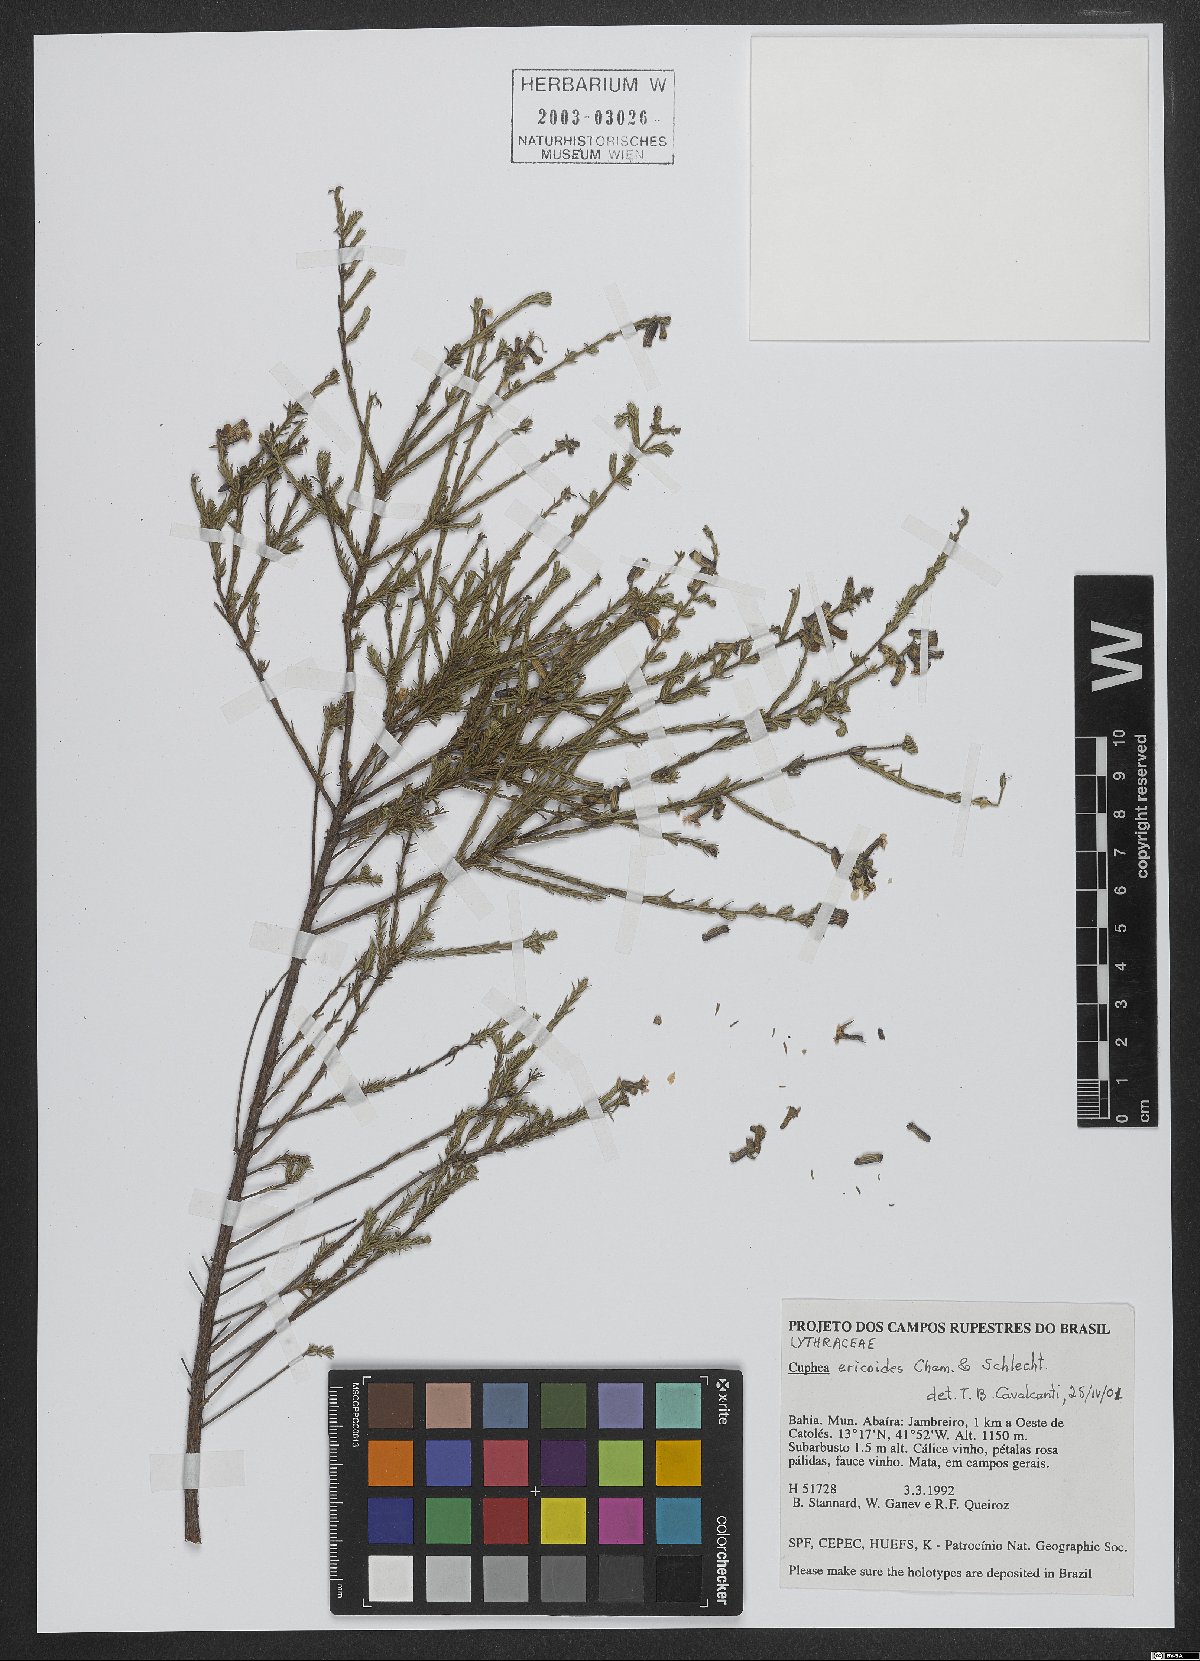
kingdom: Plantae
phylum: Tracheophyta
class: Magnoliopsida
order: Myrtales
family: Lythraceae
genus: Cuphea
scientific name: Cuphea ericoides
